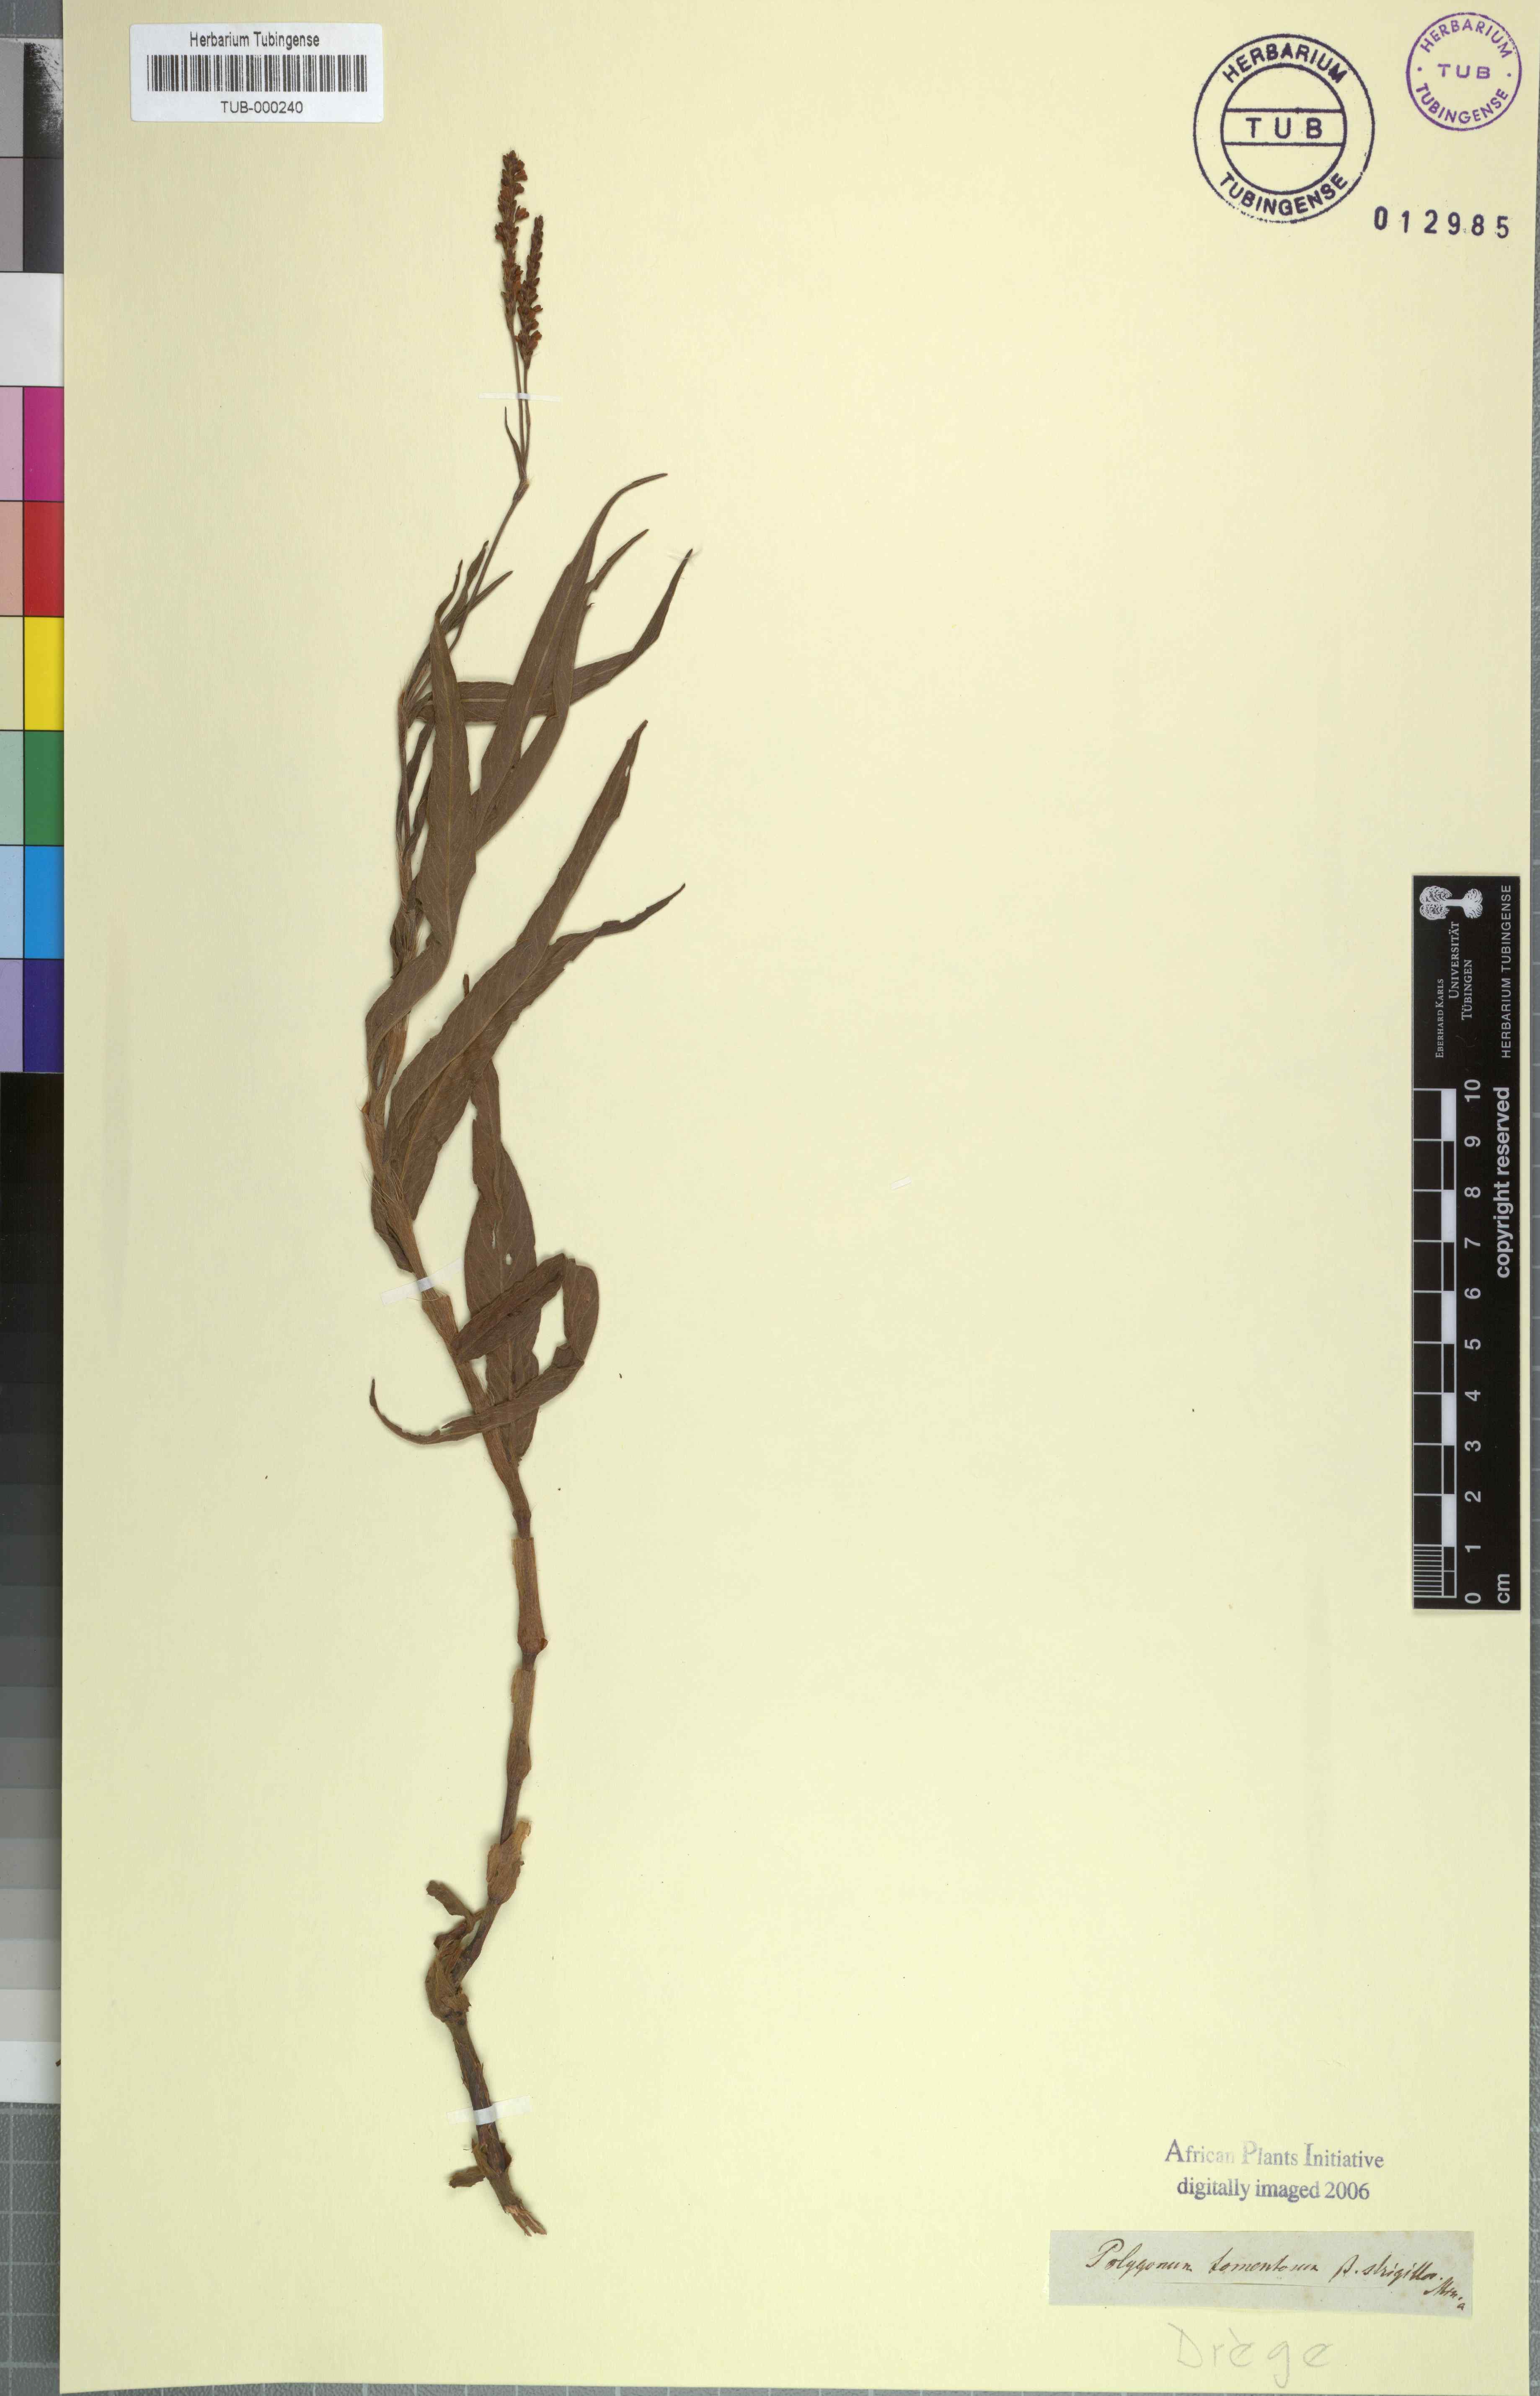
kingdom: Plantae
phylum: Tracheophyta
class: Magnoliopsida
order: Caryophyllales
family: Polygonaceae
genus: Persicaria
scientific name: Persicaria madagascariensis
